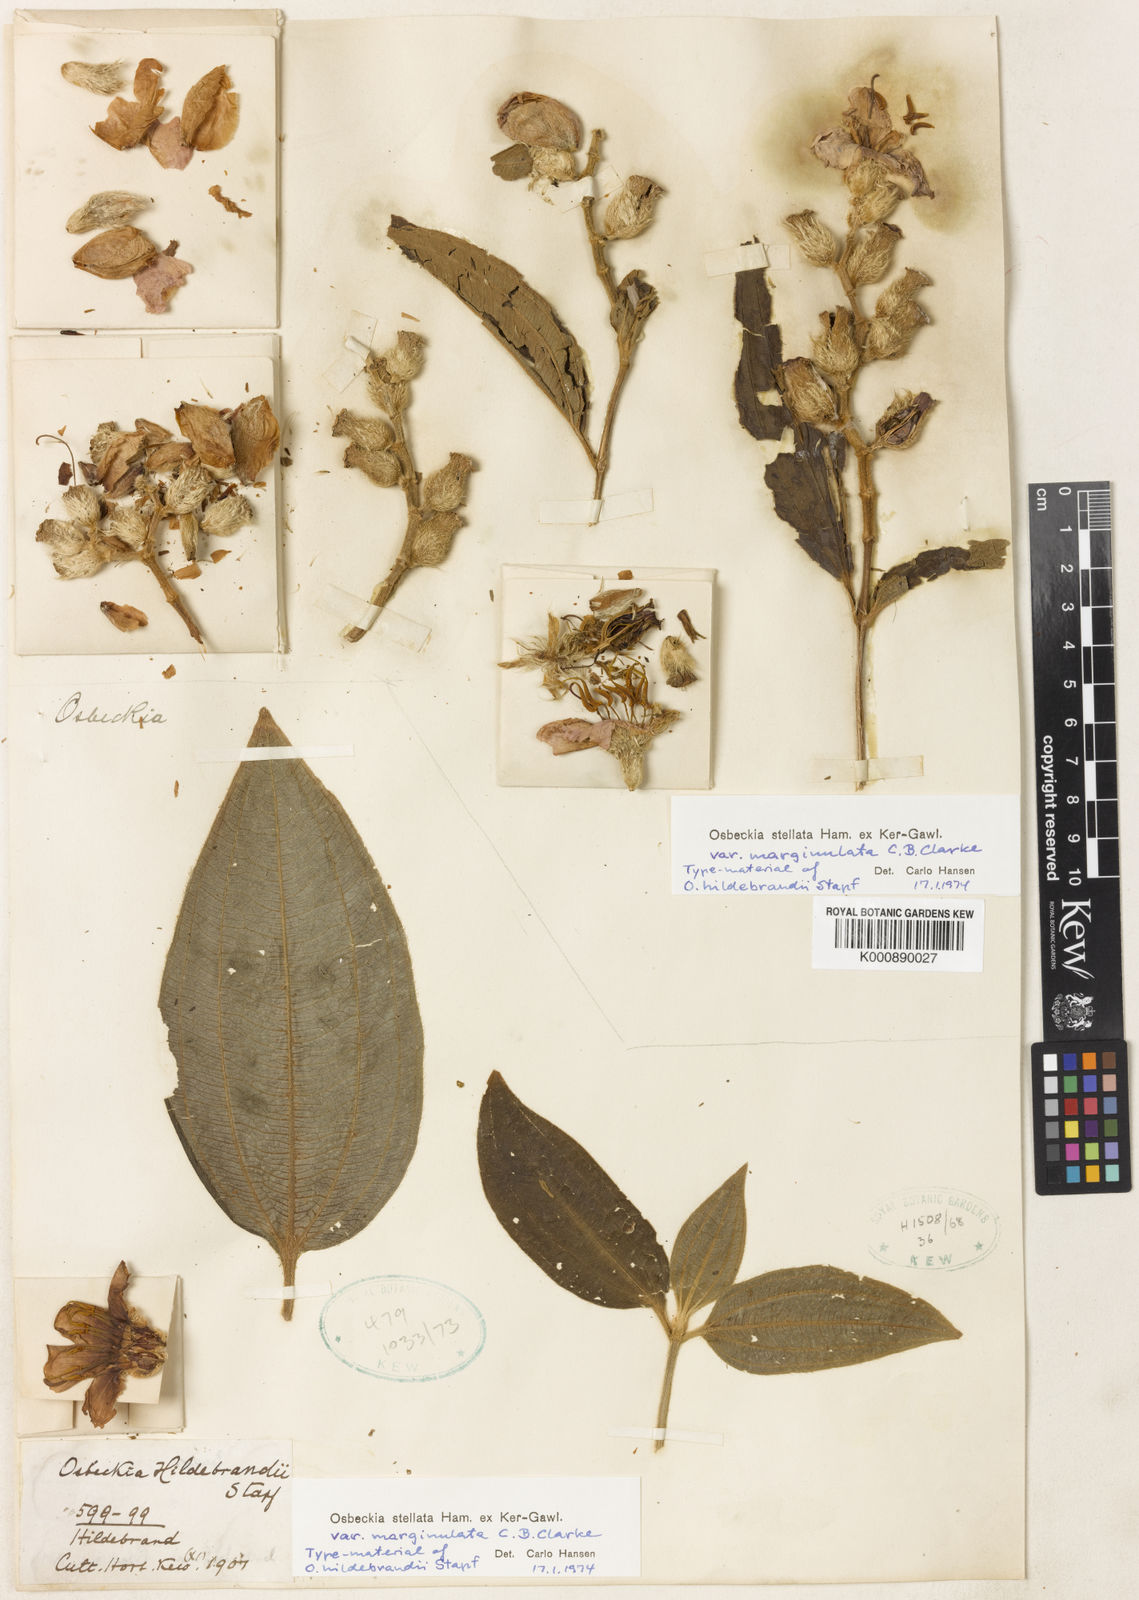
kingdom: Plantae
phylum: Tracheophyta
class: Magnoliopsida
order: Myrtales
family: Melastomataceae
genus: Osbeckia
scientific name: Osbeckia stellata
